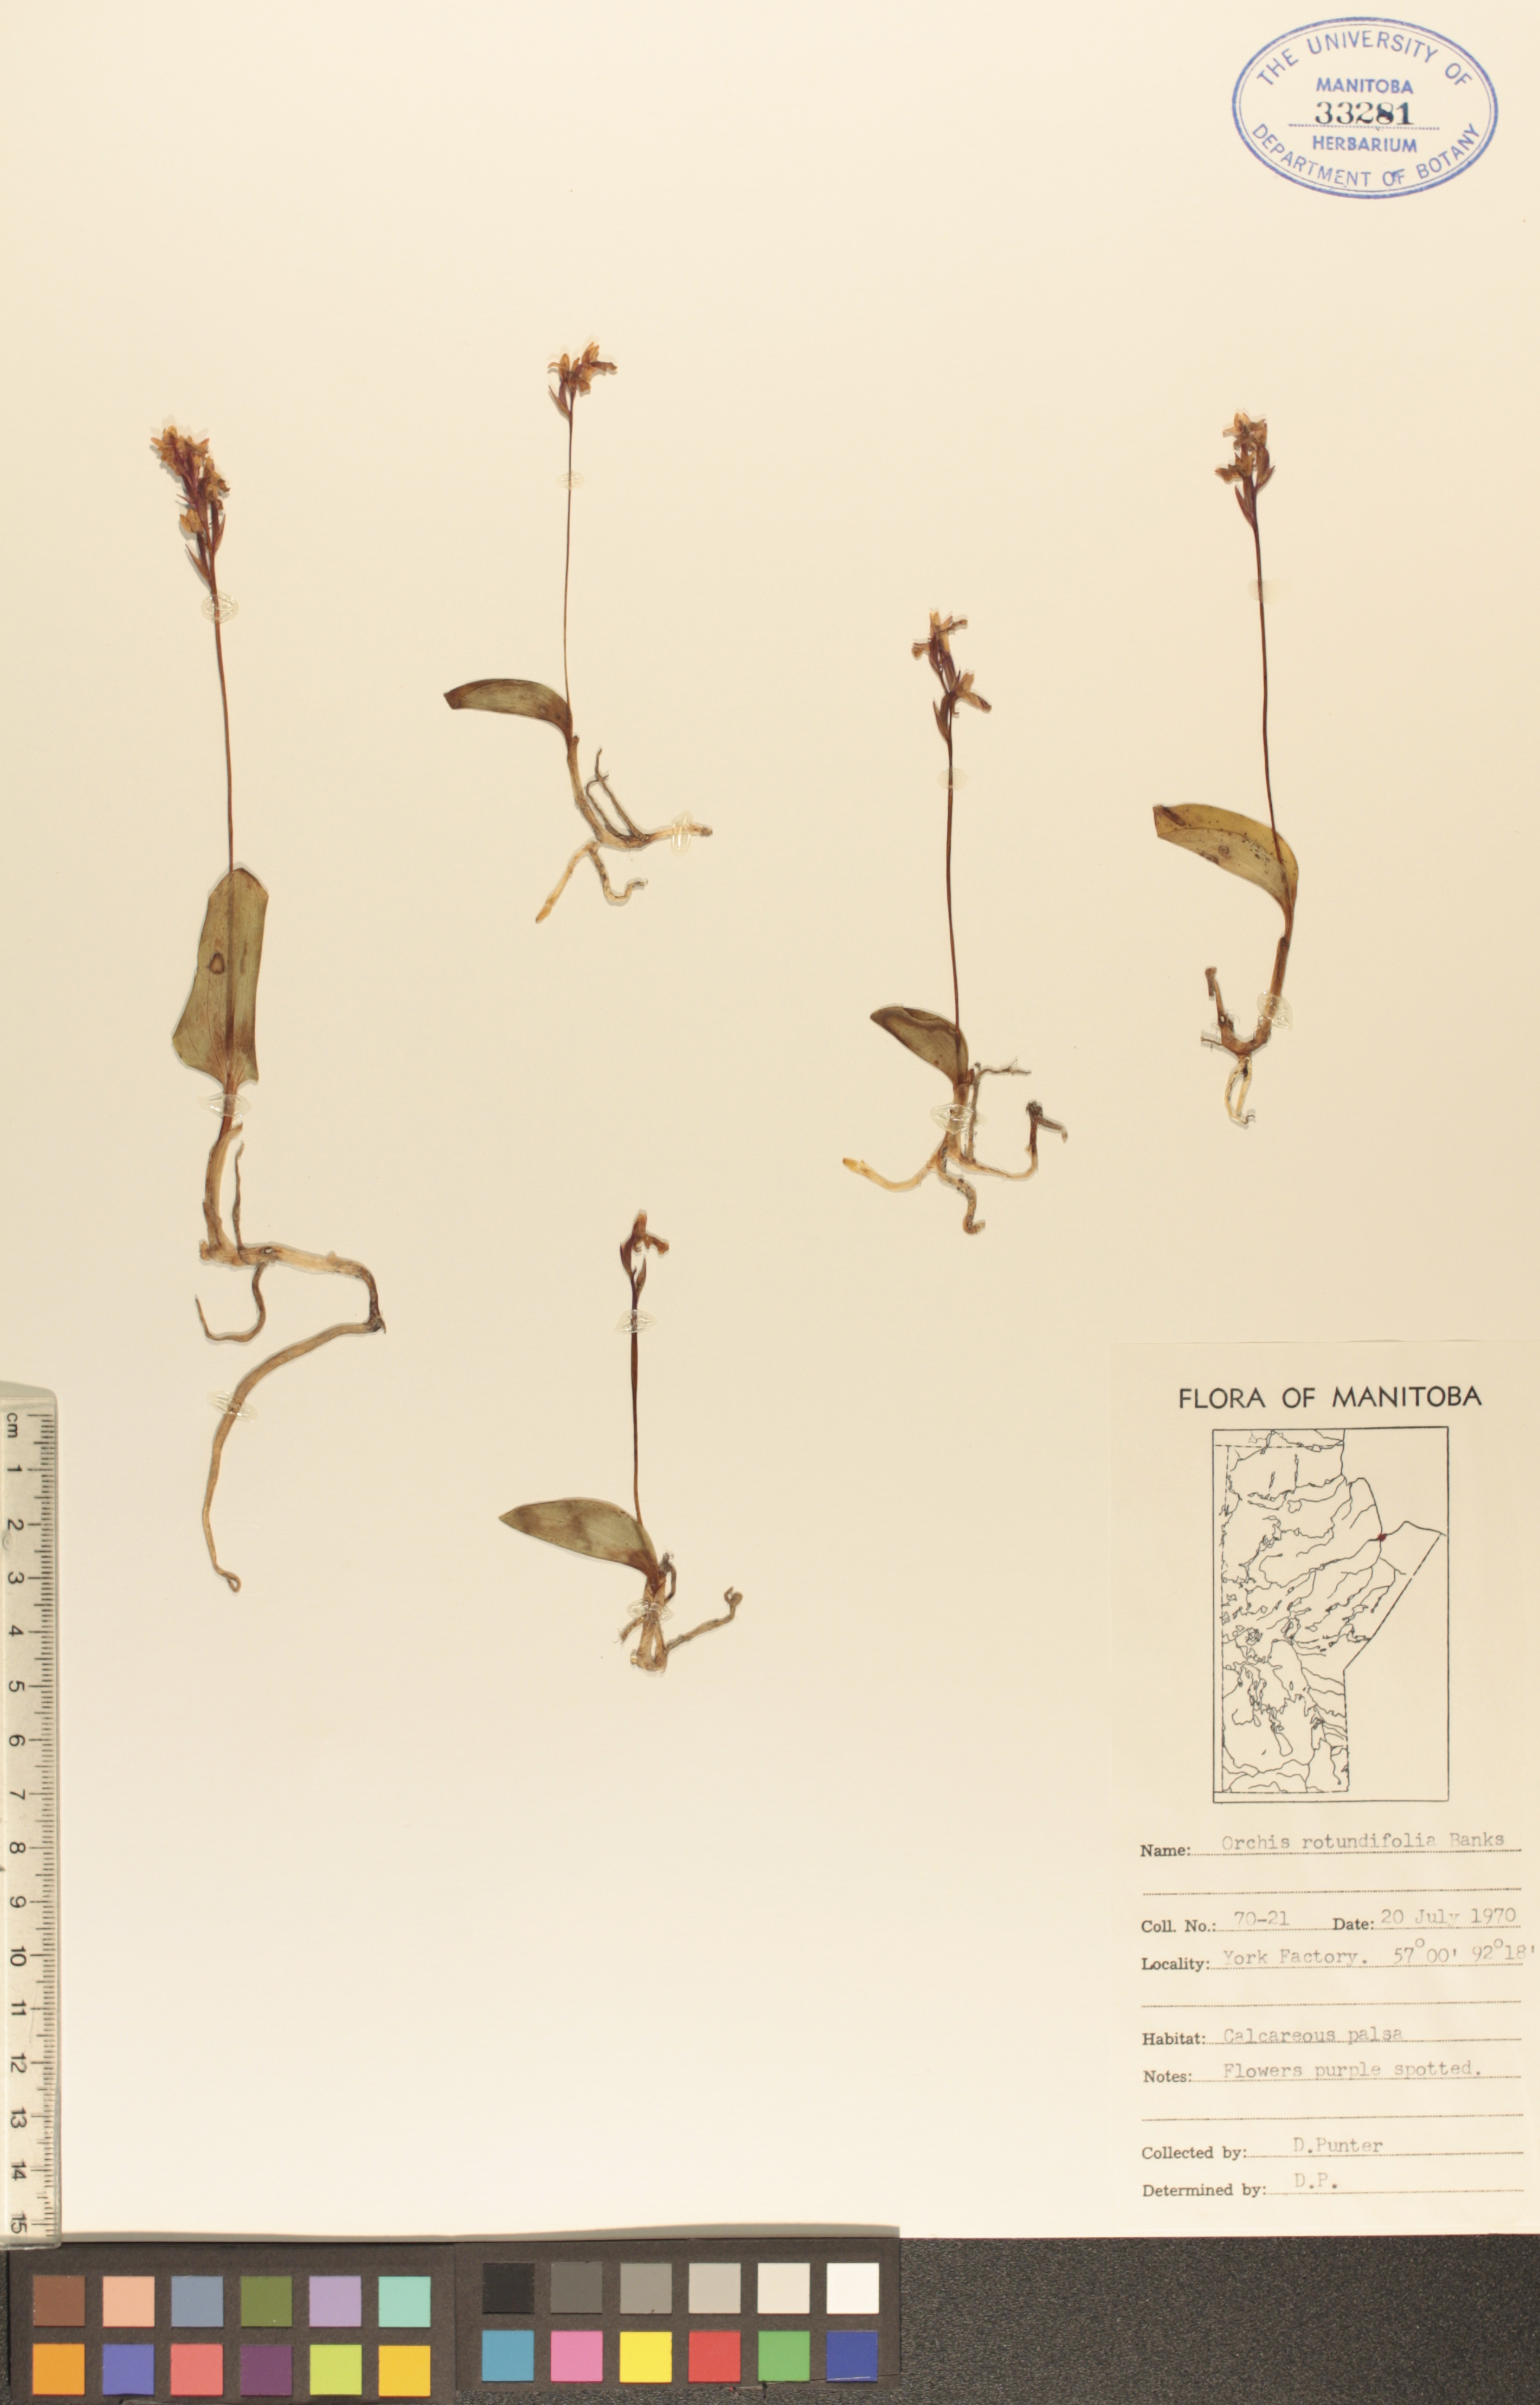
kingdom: Plantae
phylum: Tracheophyta
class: Liliopsida
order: Asparagales
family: Orchidaceae
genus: Galearis
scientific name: Galearis rotundifolia
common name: One-leaved orchis
